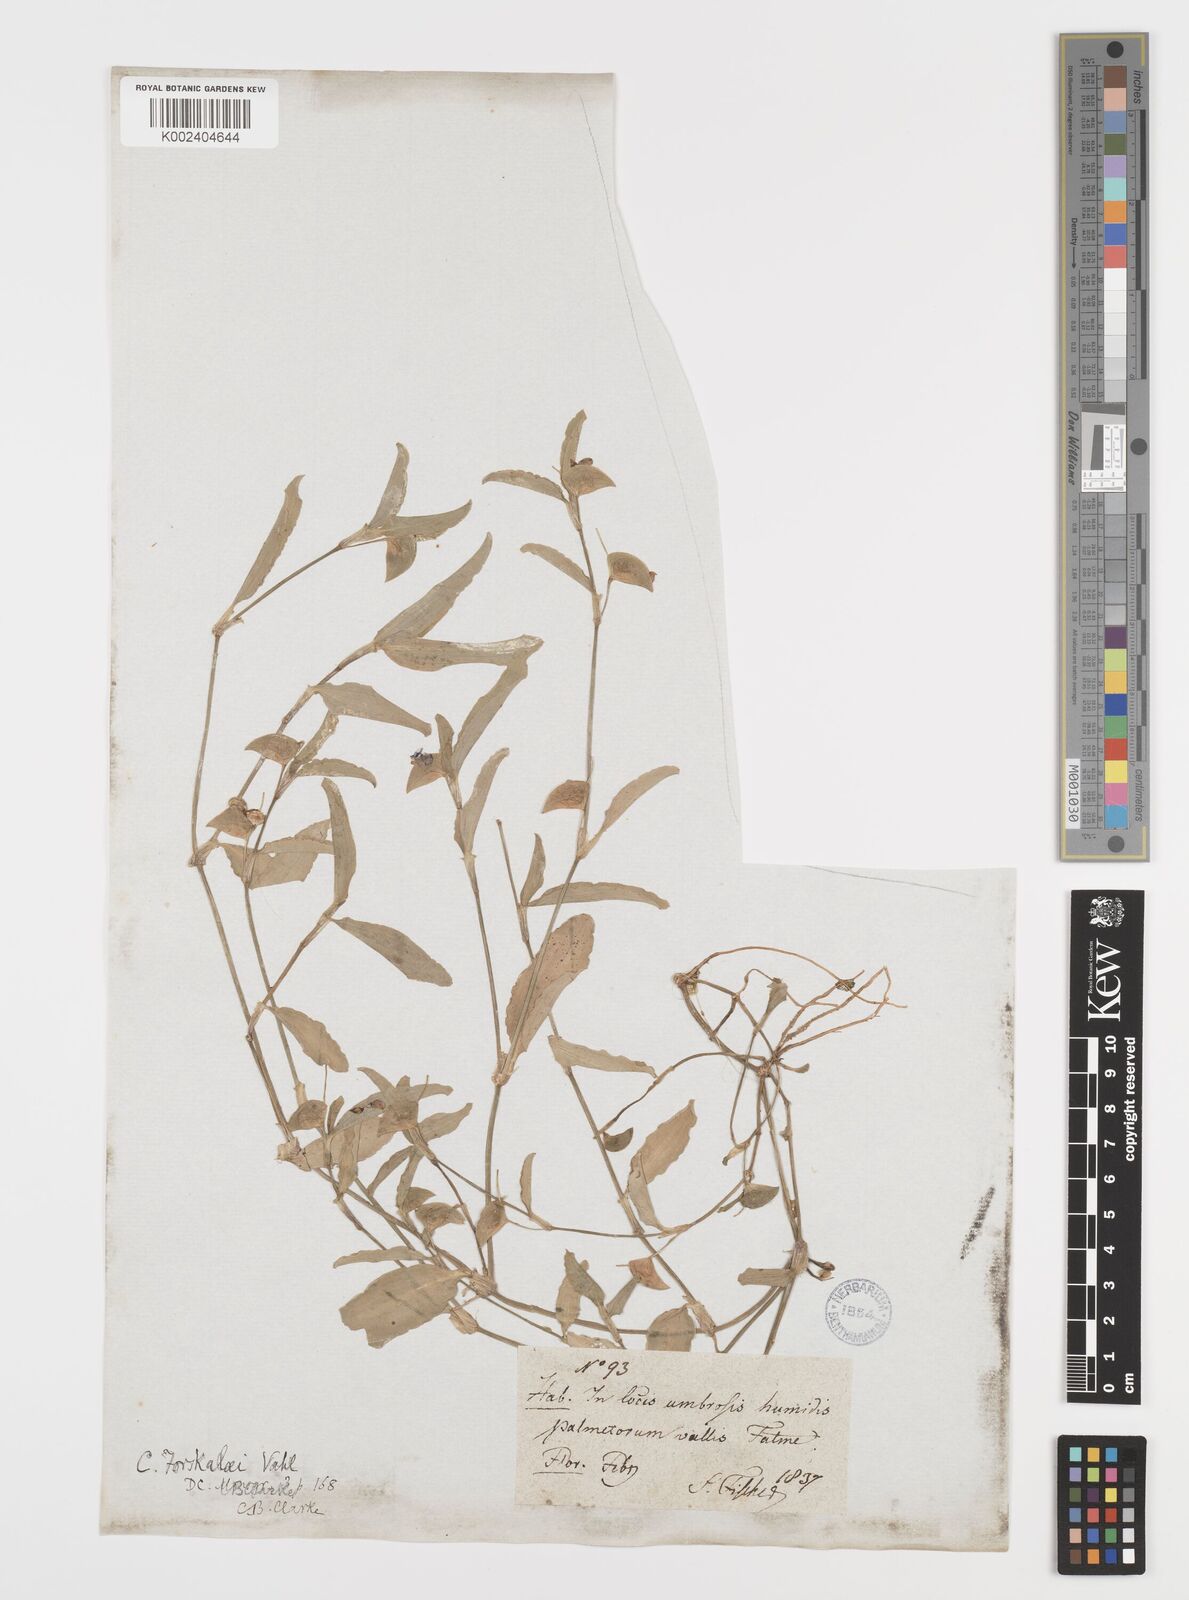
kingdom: Plantae
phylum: Tracheophyta
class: Liliopsida
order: Commelinales
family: Commelinaceae
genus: Commelina
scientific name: Commelina forskaolii
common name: Rat's ear
